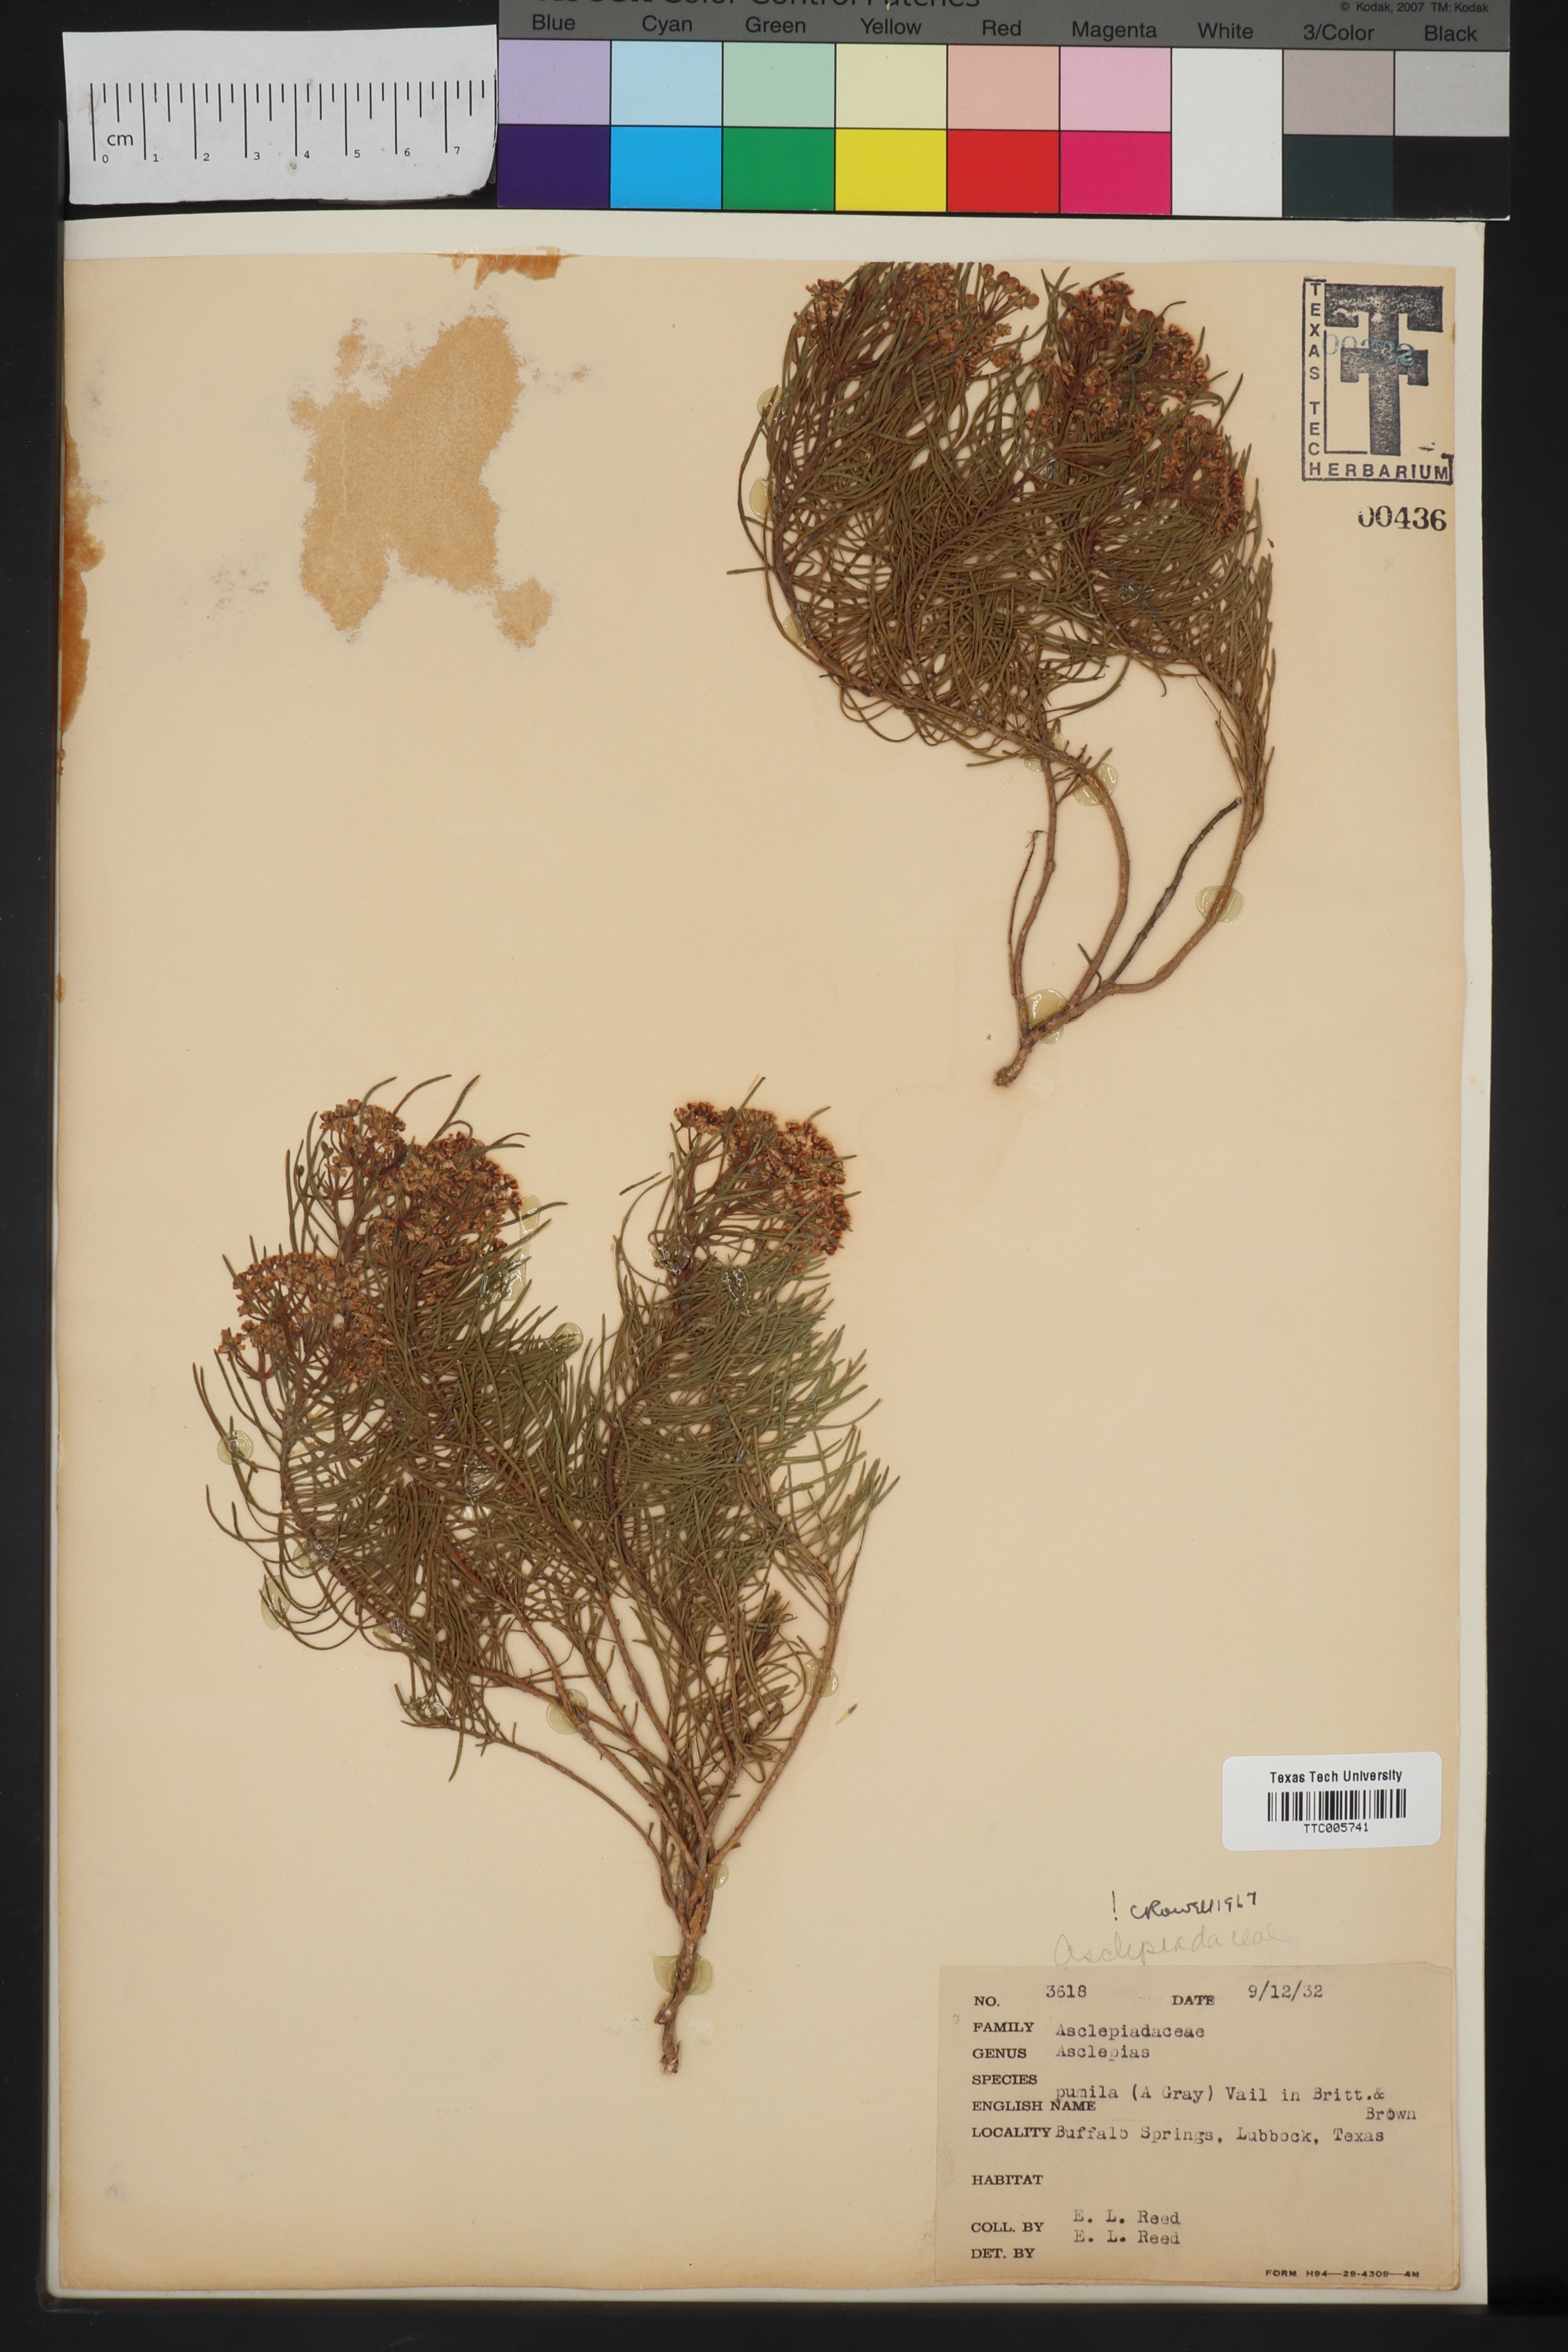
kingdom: Plantae
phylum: Tracheophyta
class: Magnoliopsida
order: Gentianales
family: Apocynaceae
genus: Asclepias
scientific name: Asclepias pumila
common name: Dwarf milkweed
